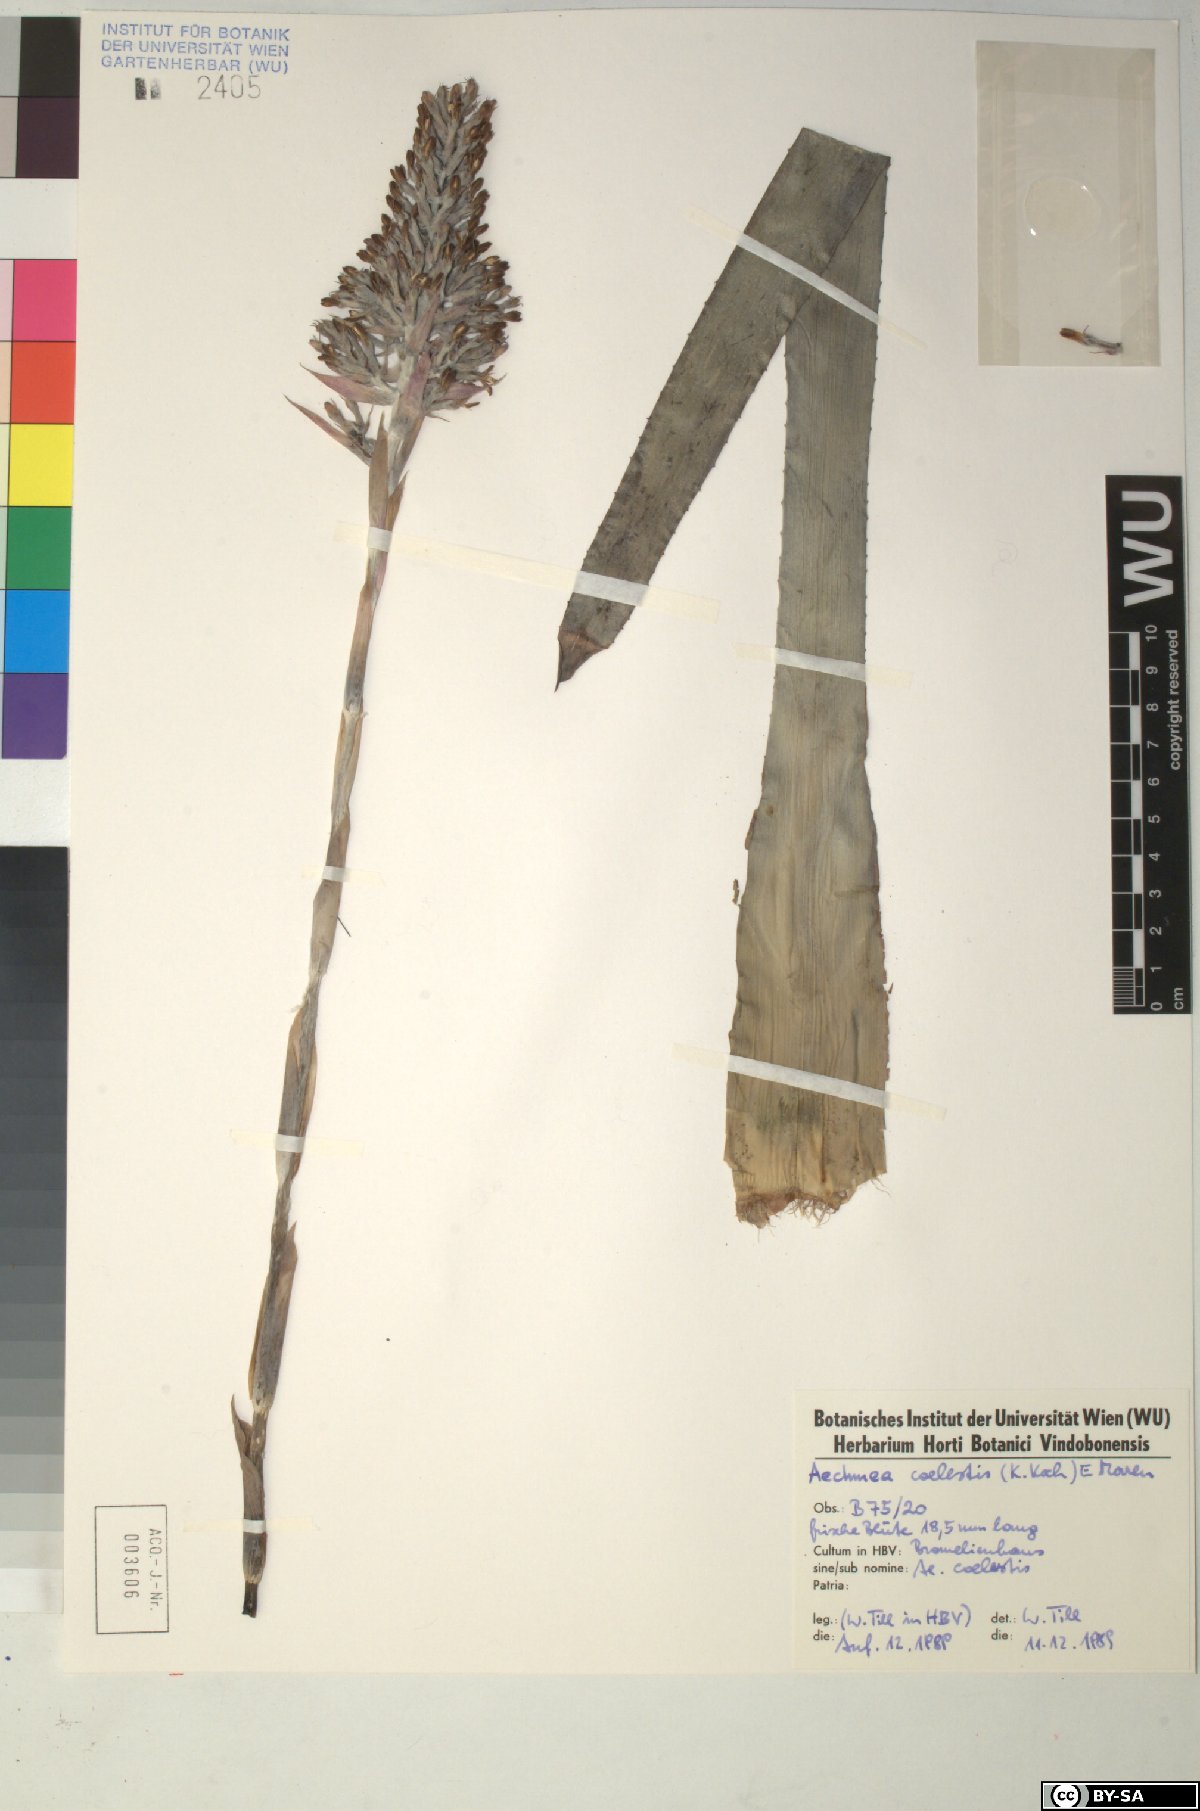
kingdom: Plantae
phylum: Tracheophyta
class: Liliopsida
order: Poales
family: Bromeliaceae
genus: Aechmea
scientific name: Aechmea coelestis
